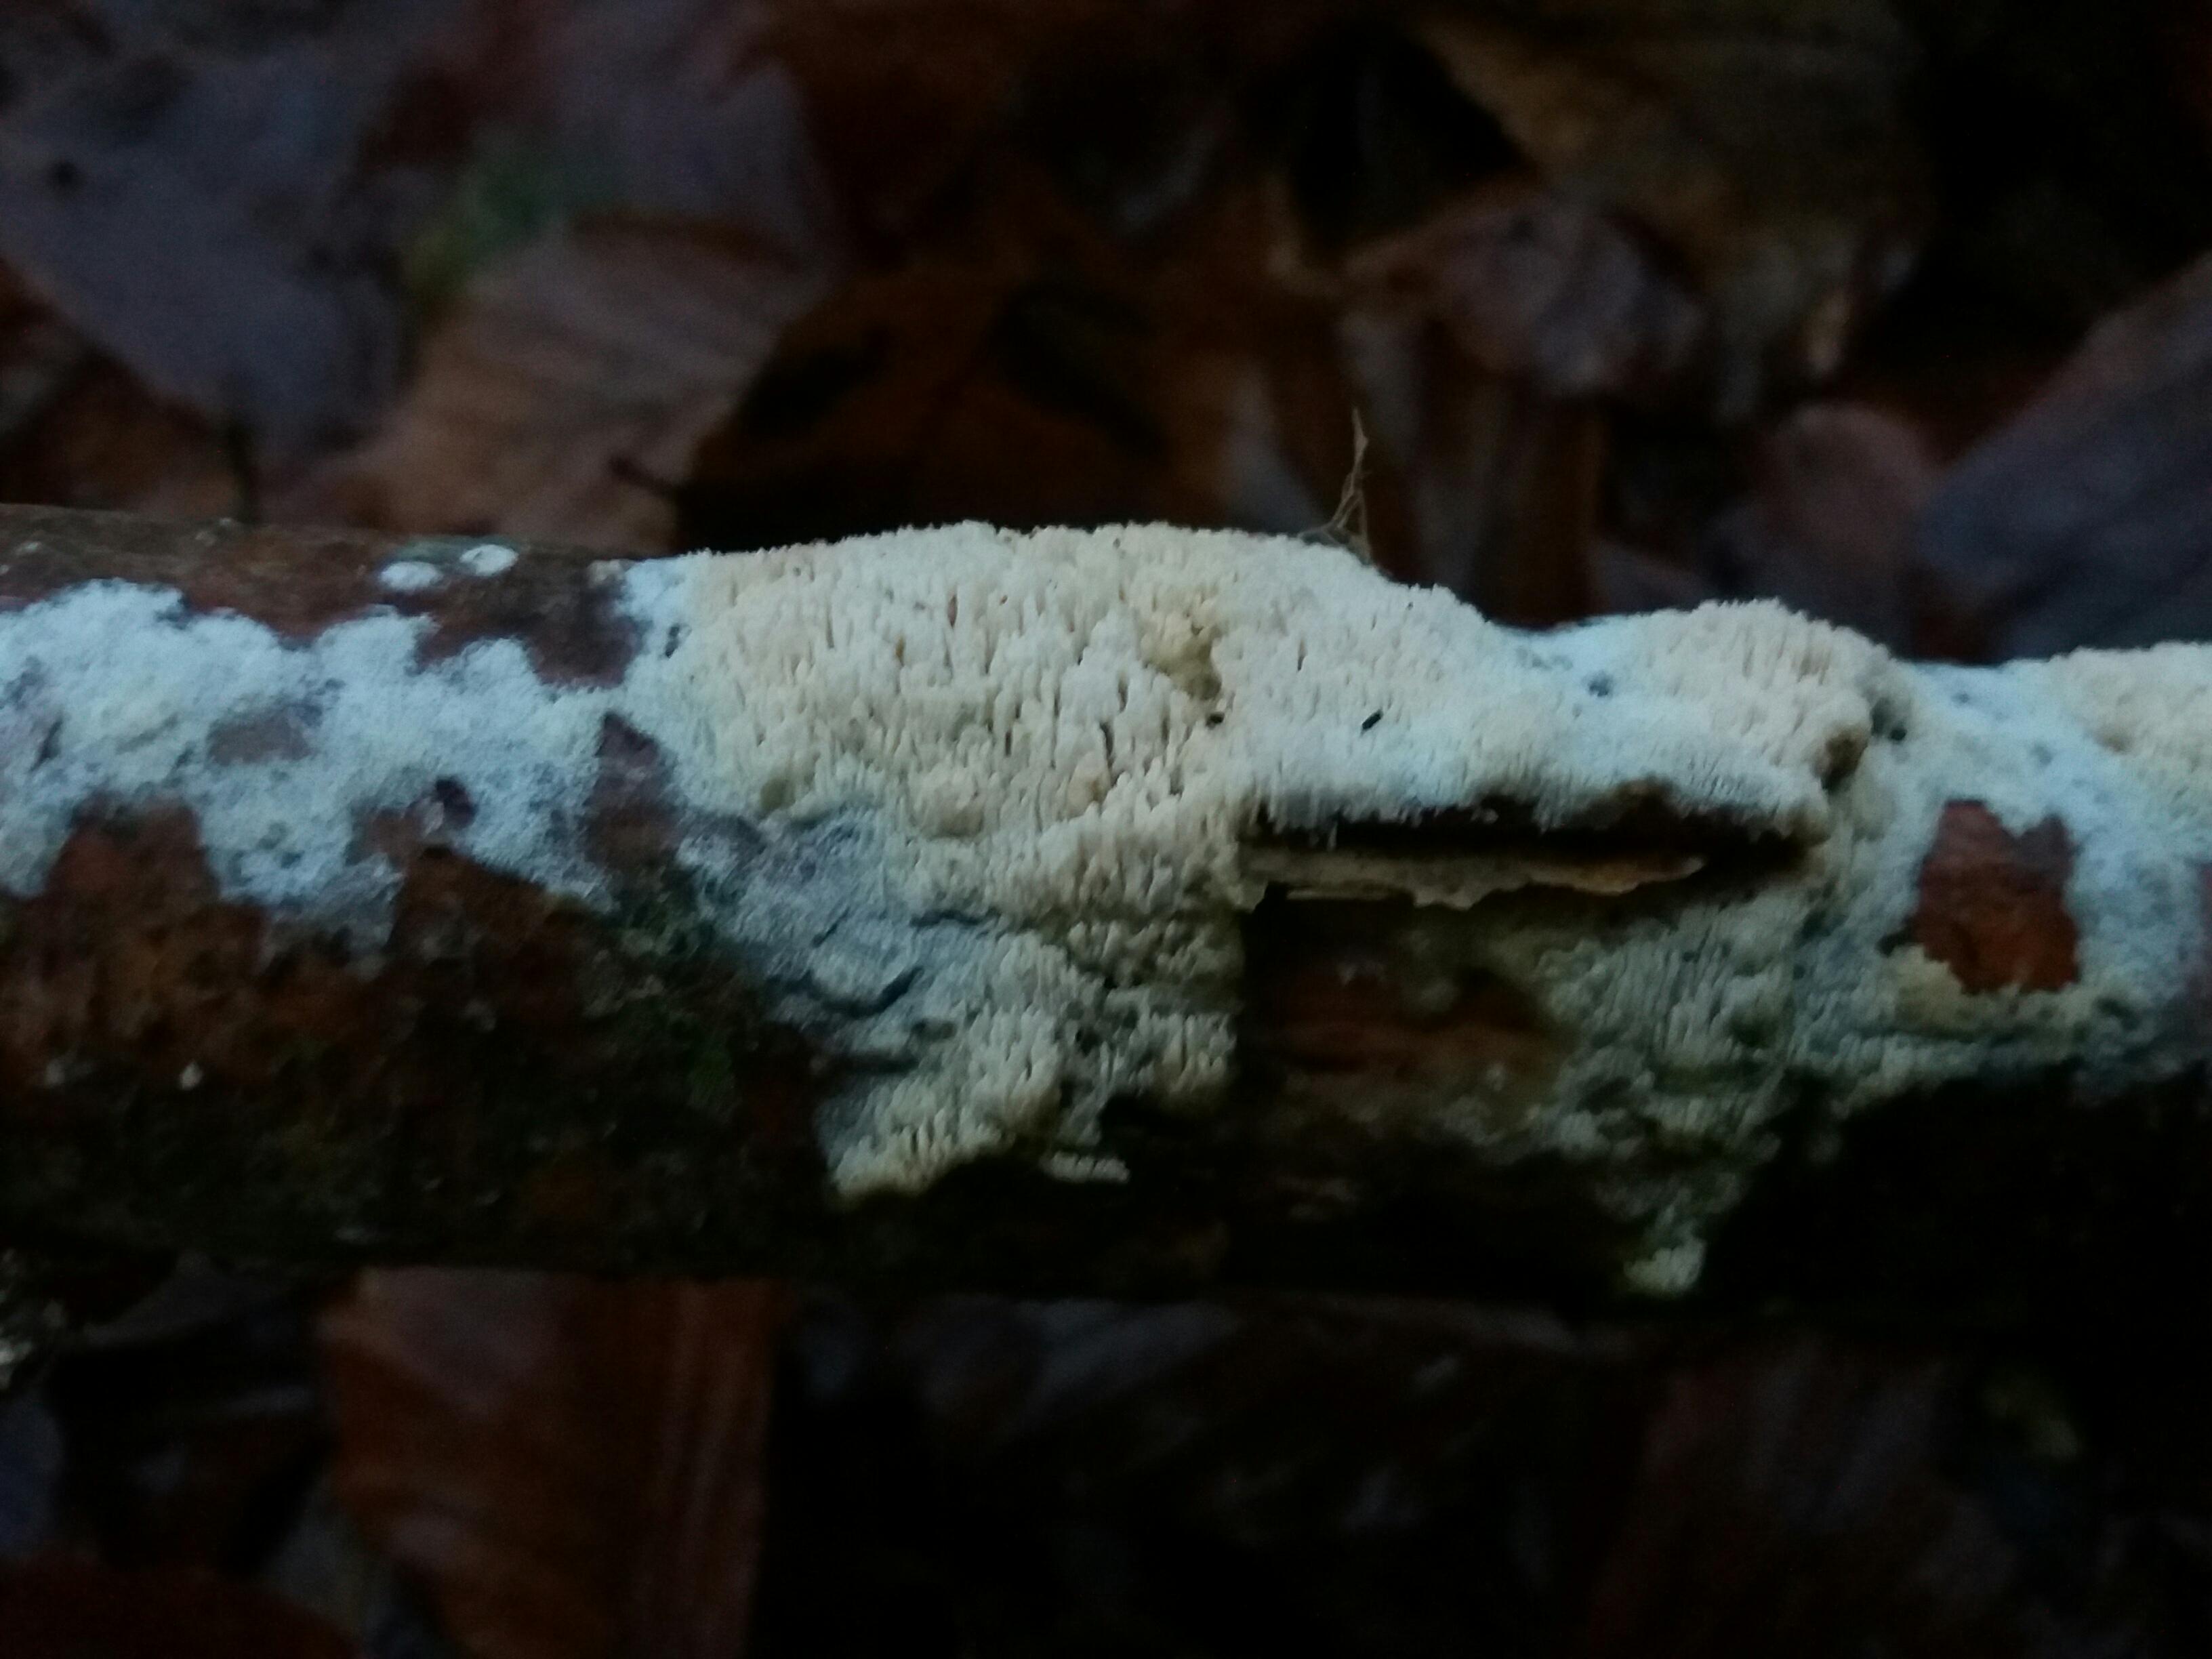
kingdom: Fungi
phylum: Basidiomycota
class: Agaricomycetes
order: Corticiales
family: Corticiaceae
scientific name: Corticiaceae
